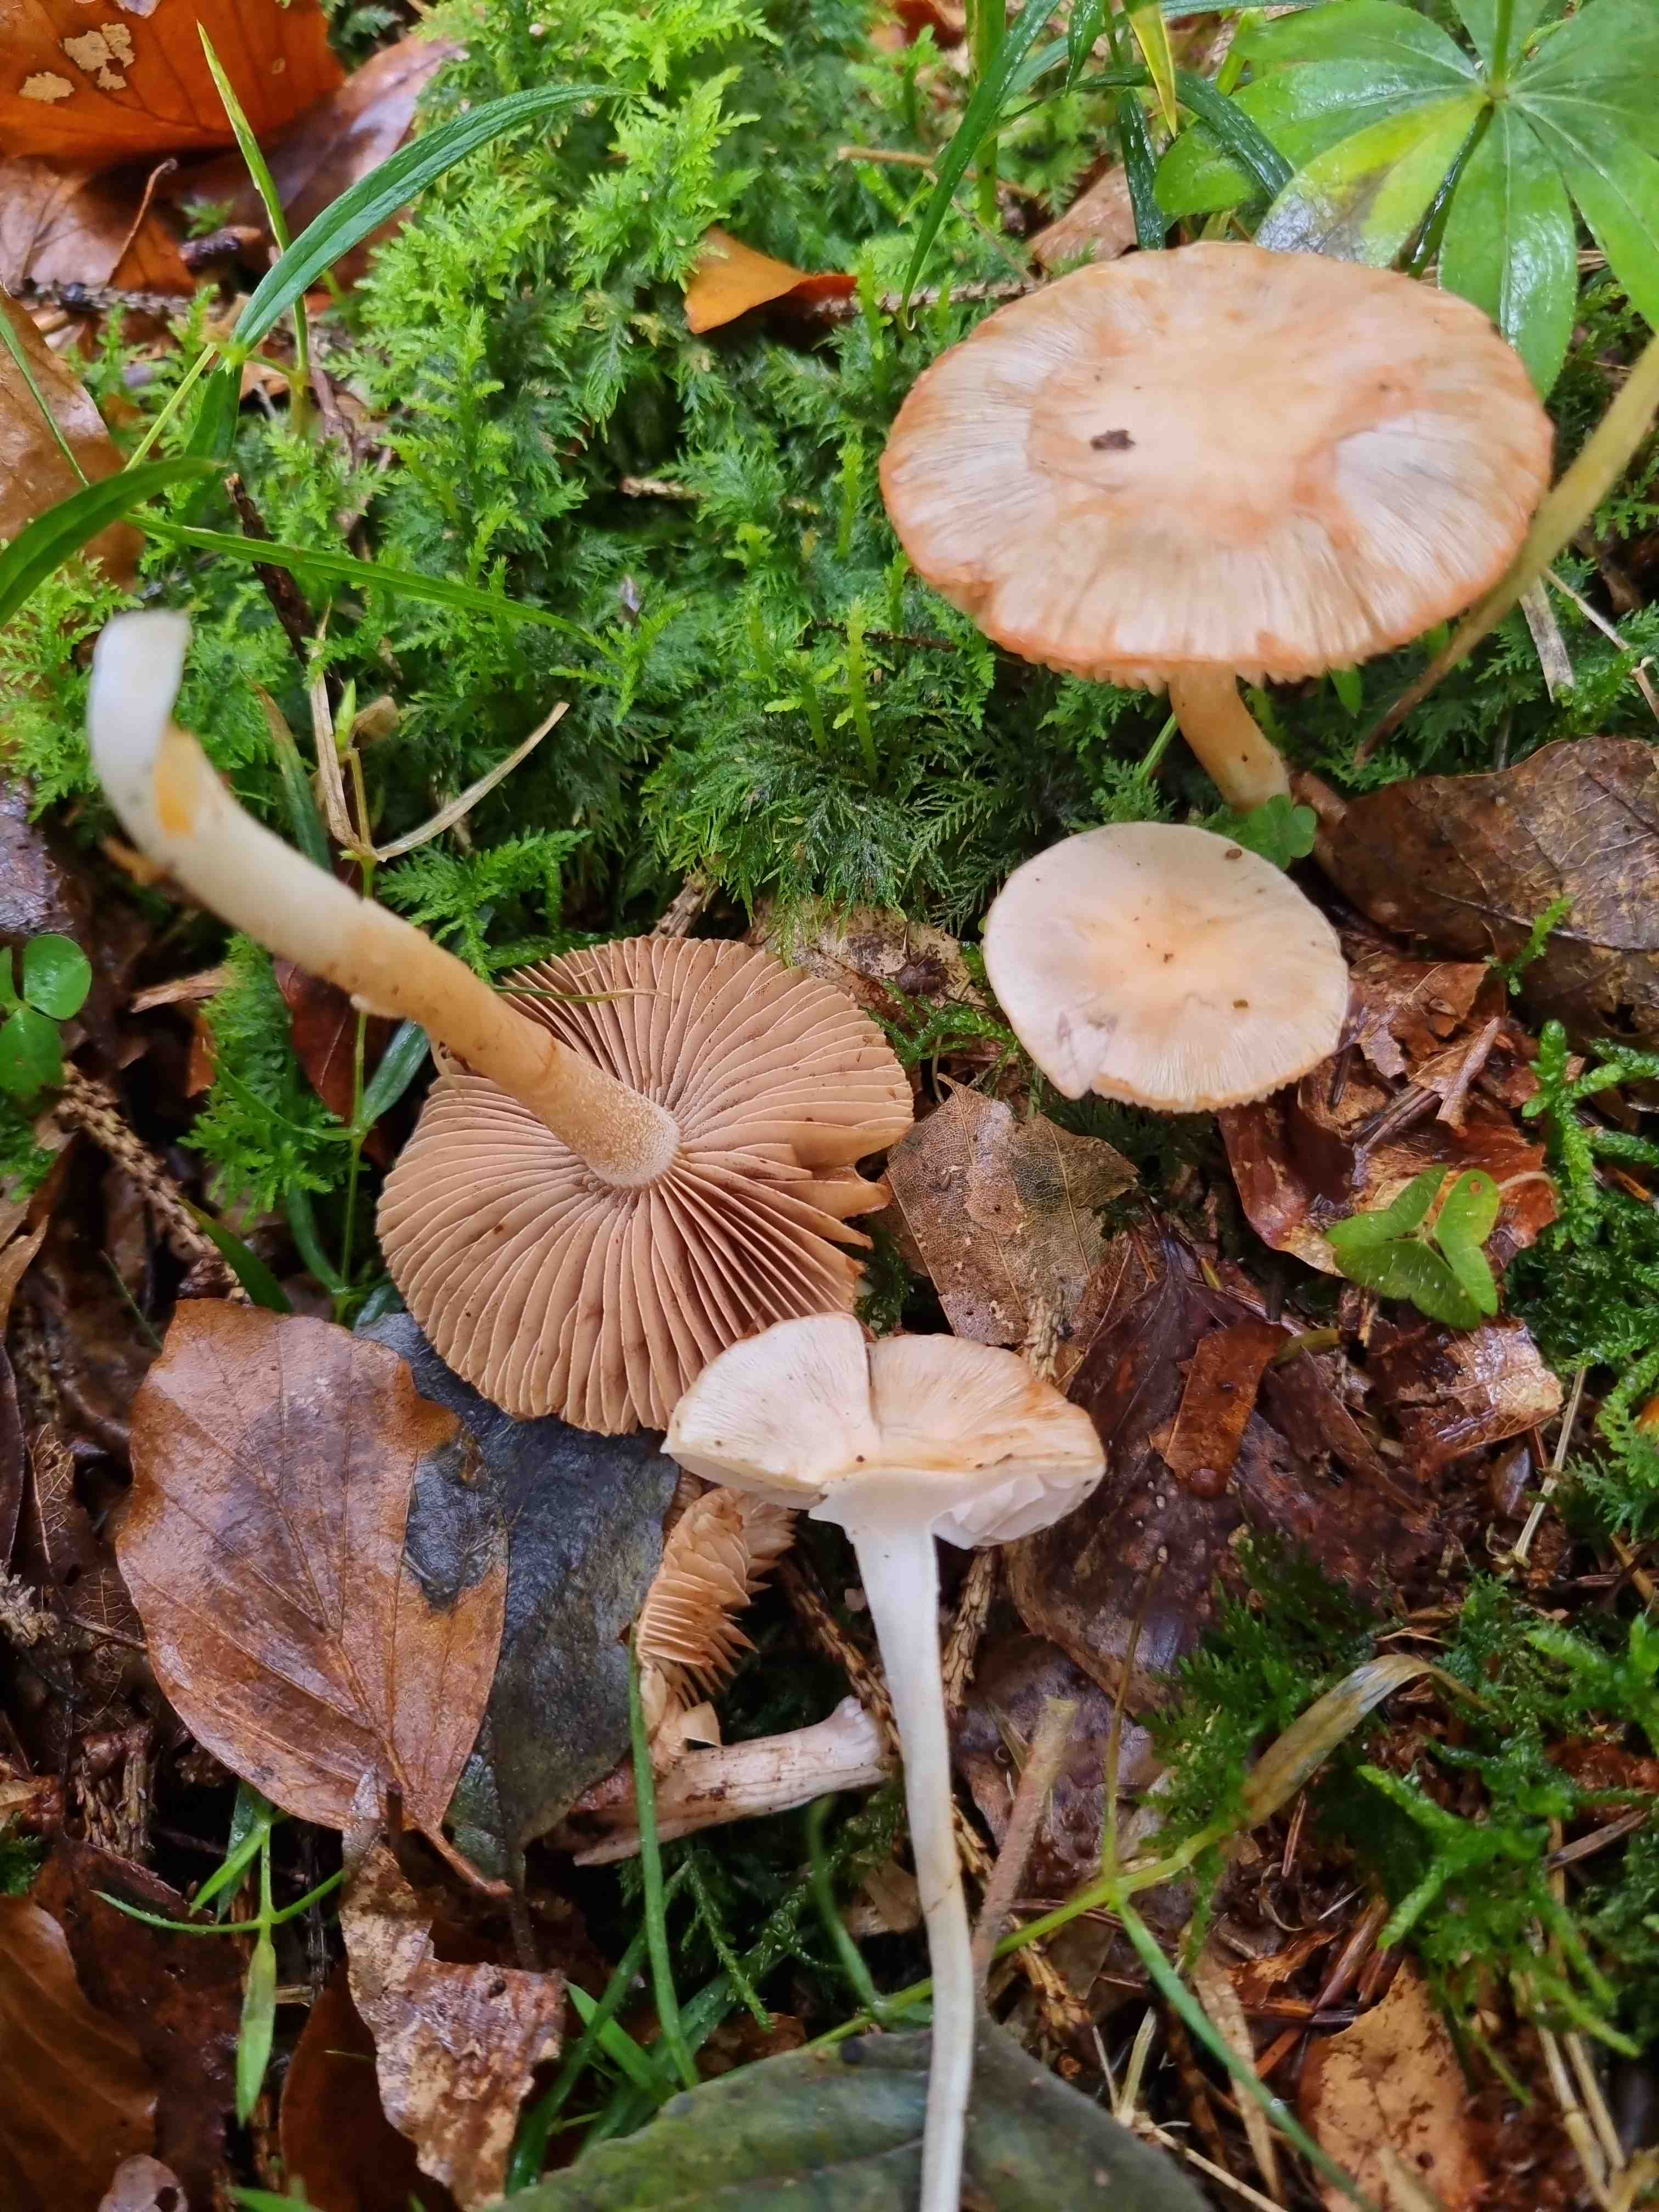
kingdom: Fungi
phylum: Basidiomycota
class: Agaricomycetes
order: Agaricales
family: Hymenogastraceae
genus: Hebeloma
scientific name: Hebeloma
